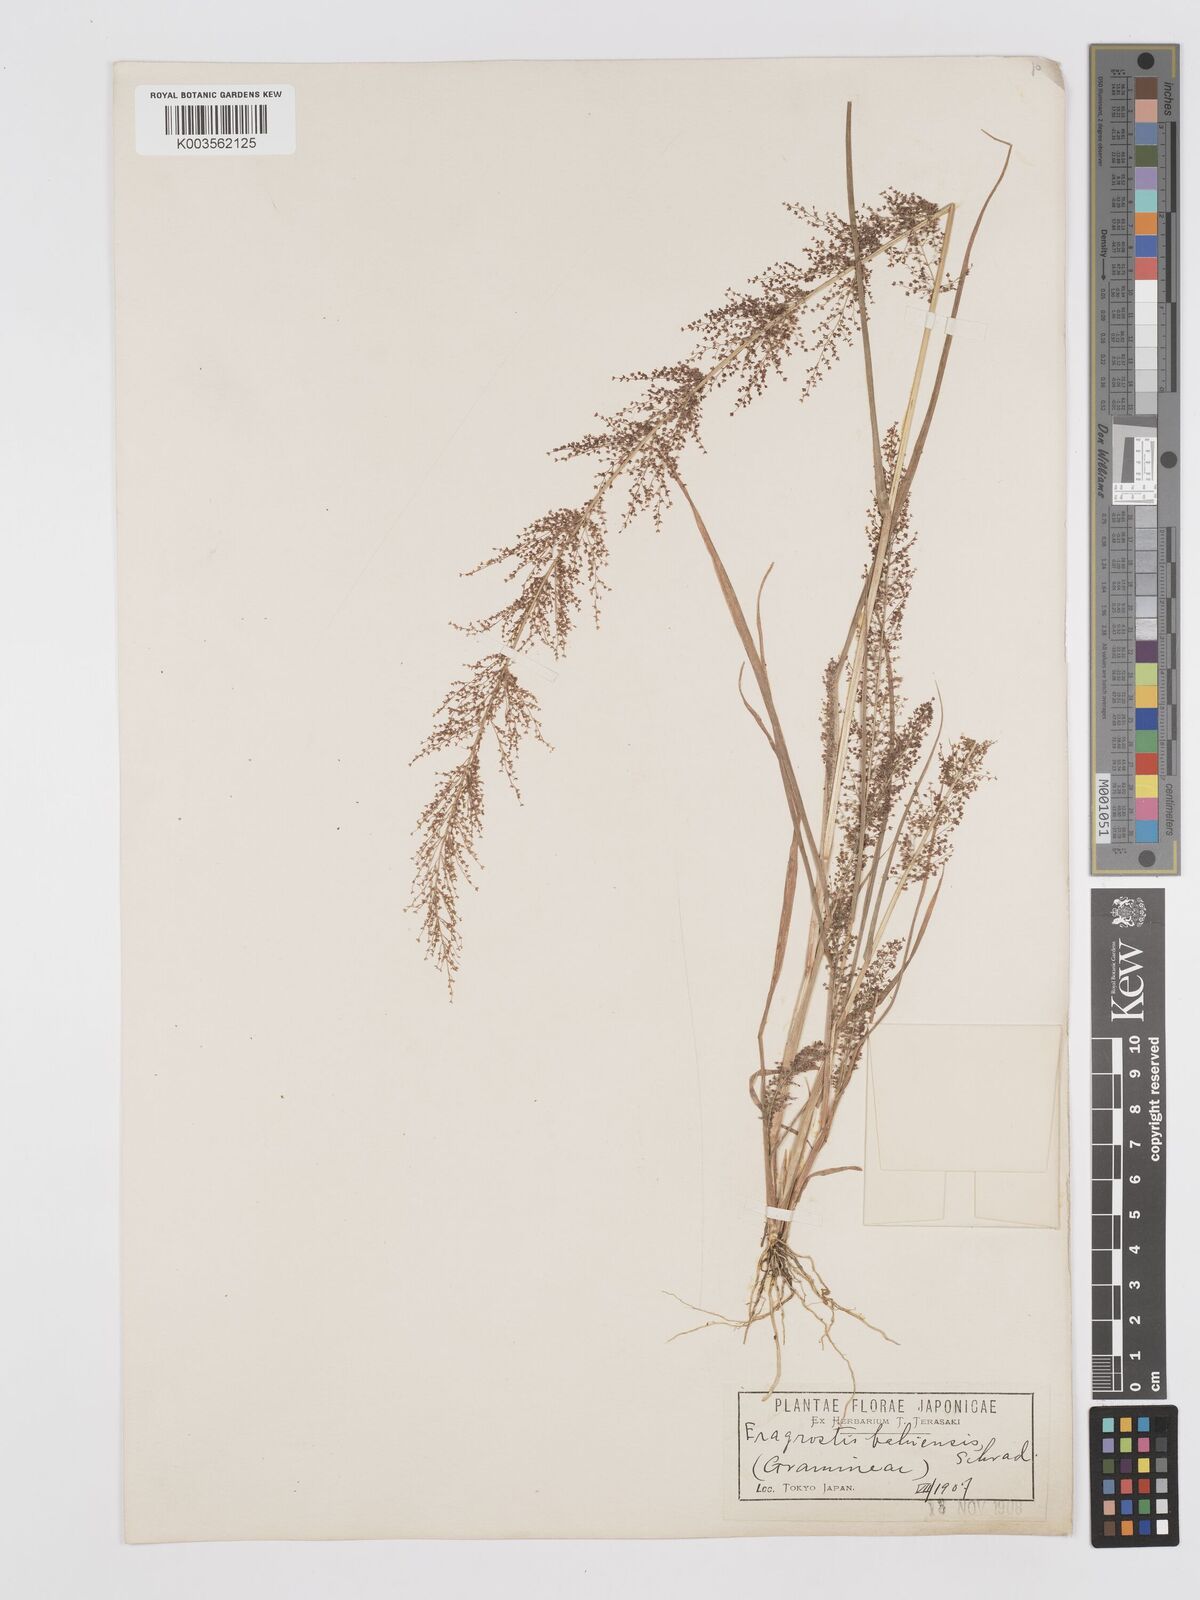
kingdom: Plantae
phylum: Tracheophyta
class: Liliopsida
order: Poales
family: Poaceae
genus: Eragrostis
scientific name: Eragrostis japonica
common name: Pond lovegrass
